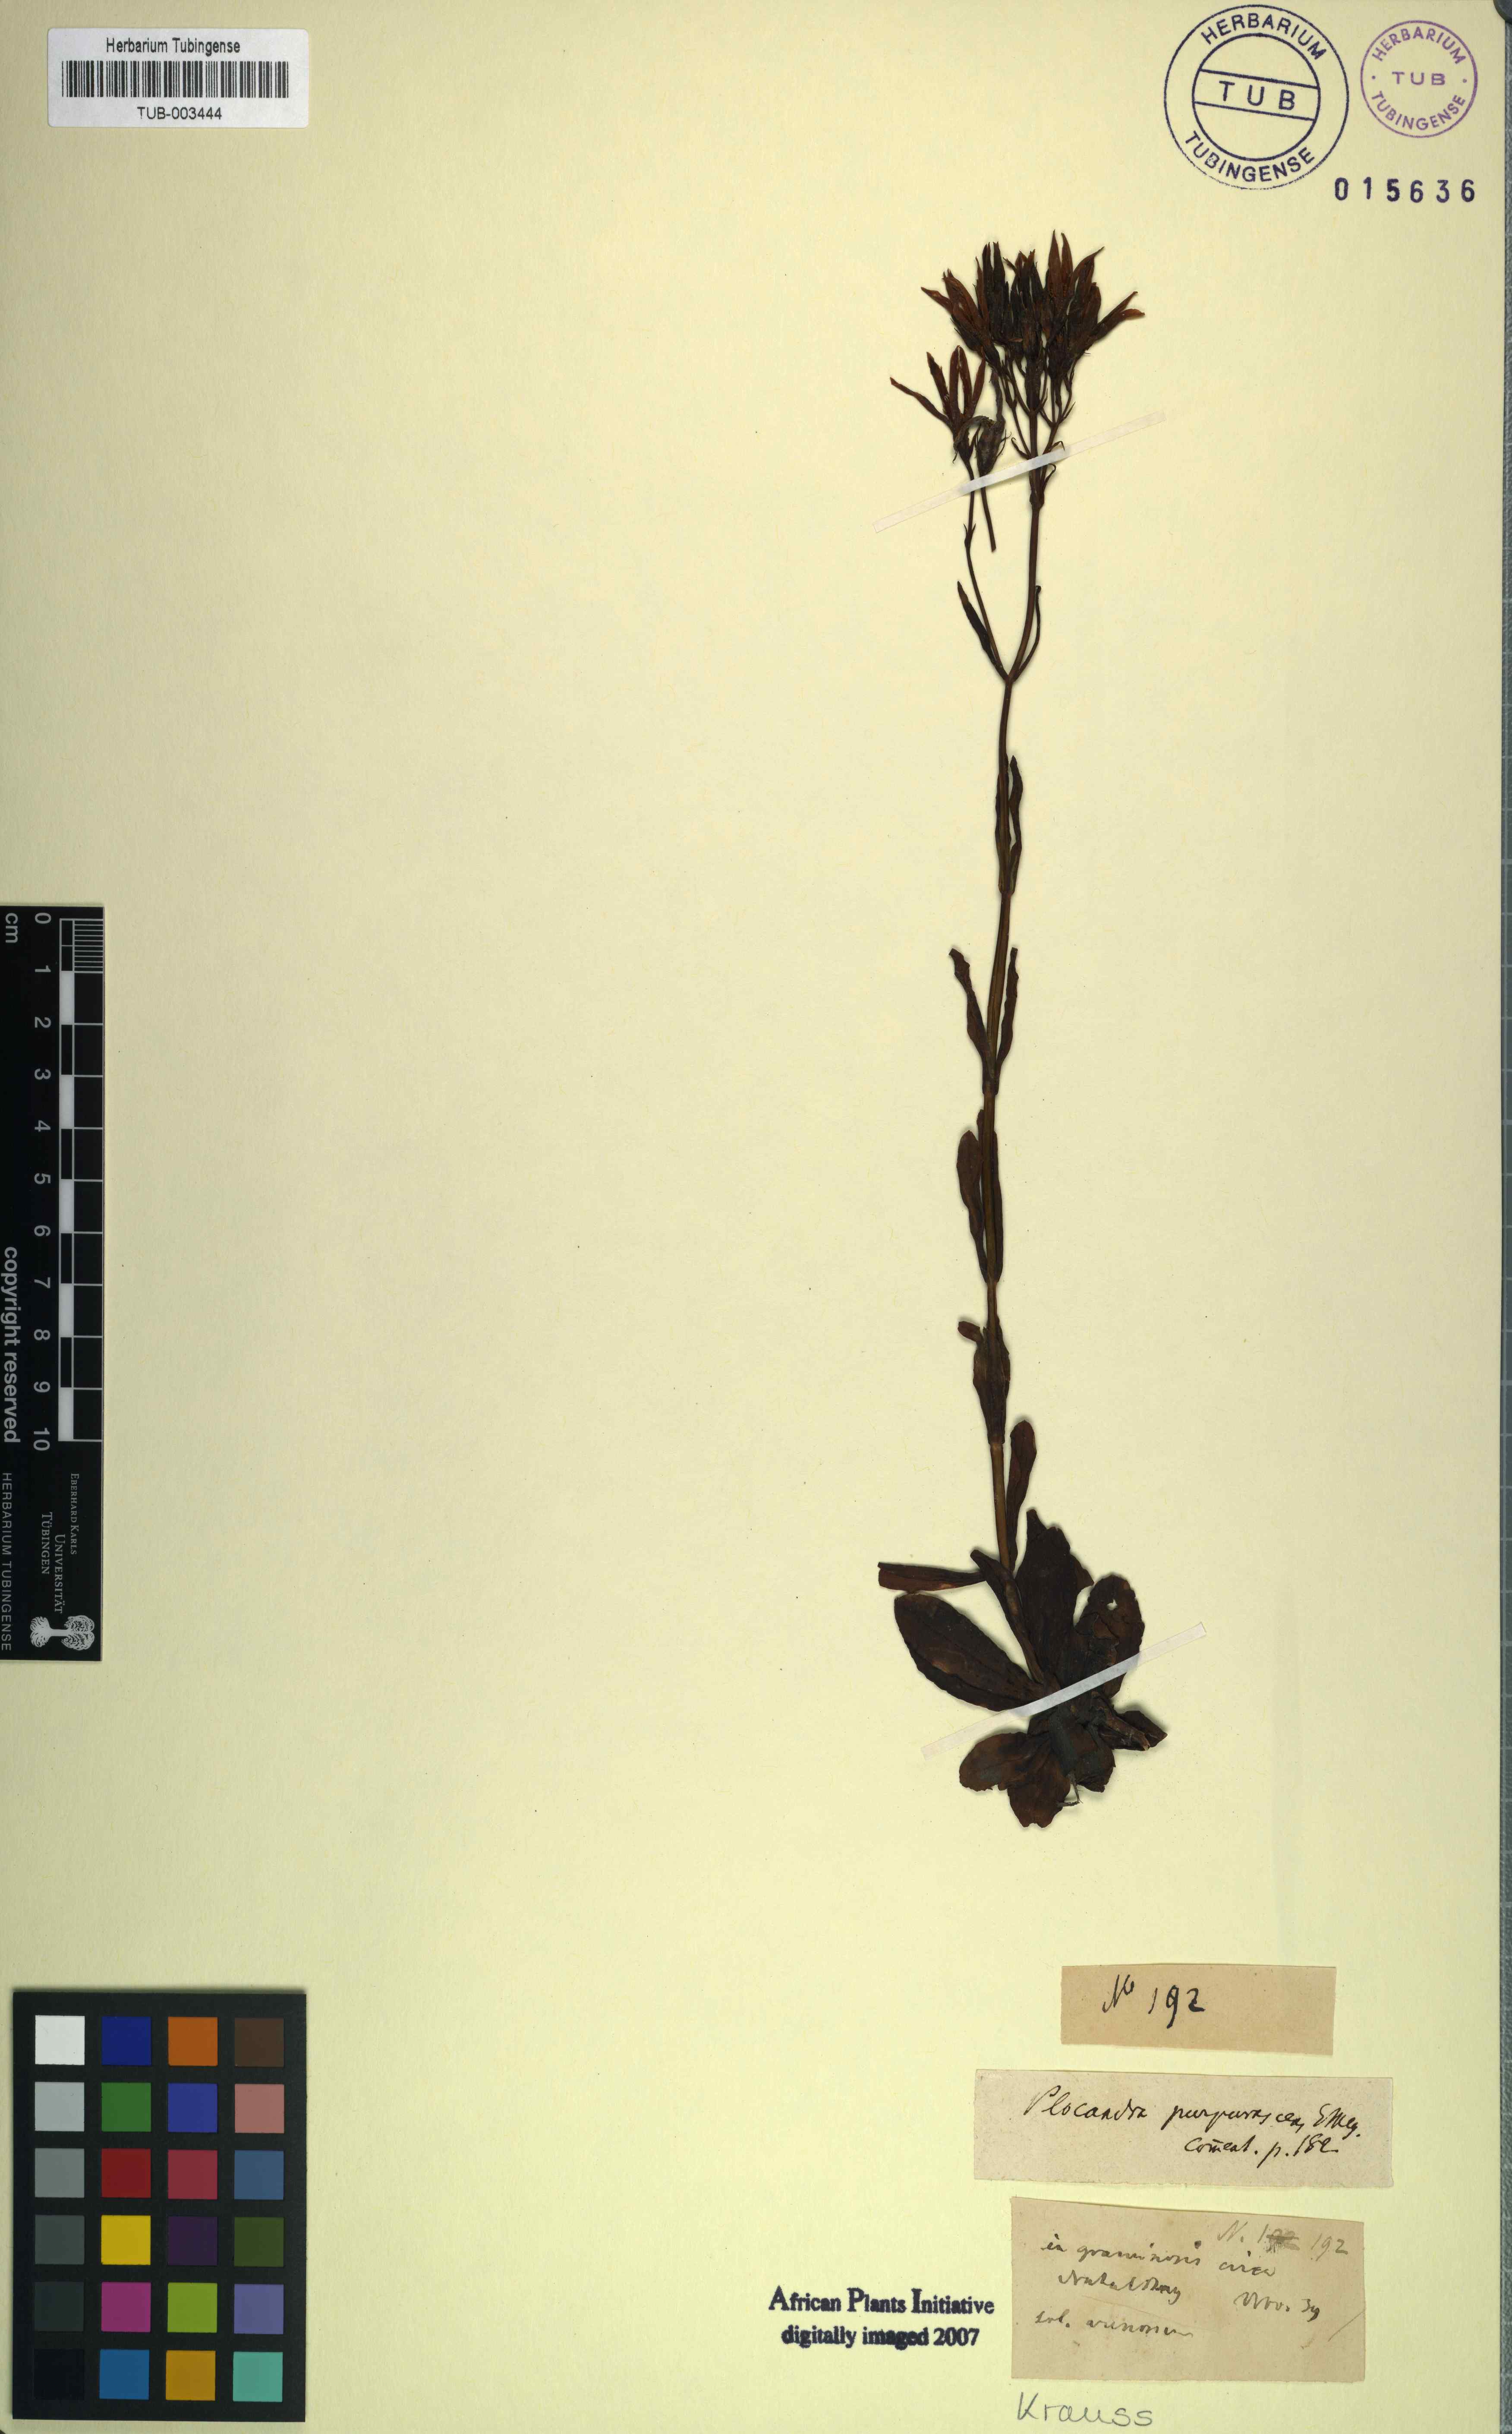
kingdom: Plantae
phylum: Tracheophyta
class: Magnoliopsida
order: Gentianales
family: Gentianaceae
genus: Chironia
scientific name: Chironia purpurascens
